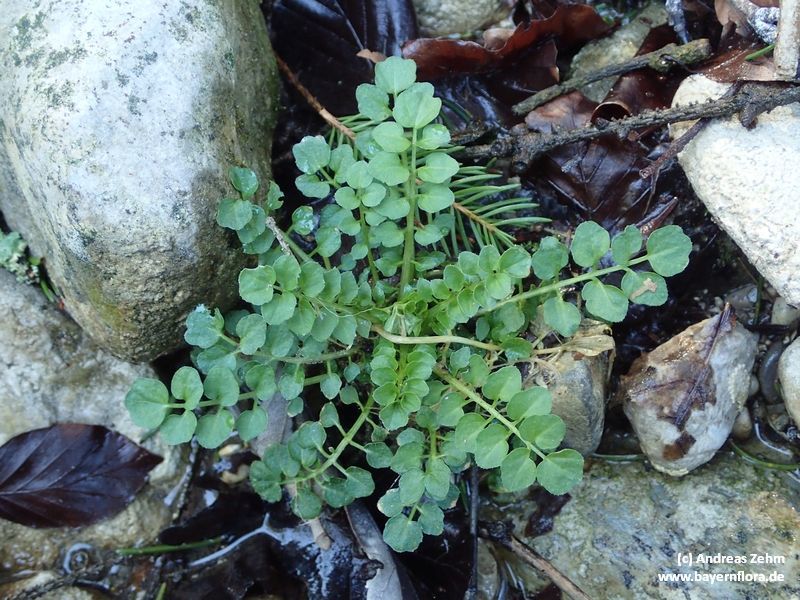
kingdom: Plantae
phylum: Tracheophyta
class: Magnoliopsida
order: Brassicales
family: Brassicaceae
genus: Cardamine
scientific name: Cardamine flexuosa
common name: Woodland bittercress
